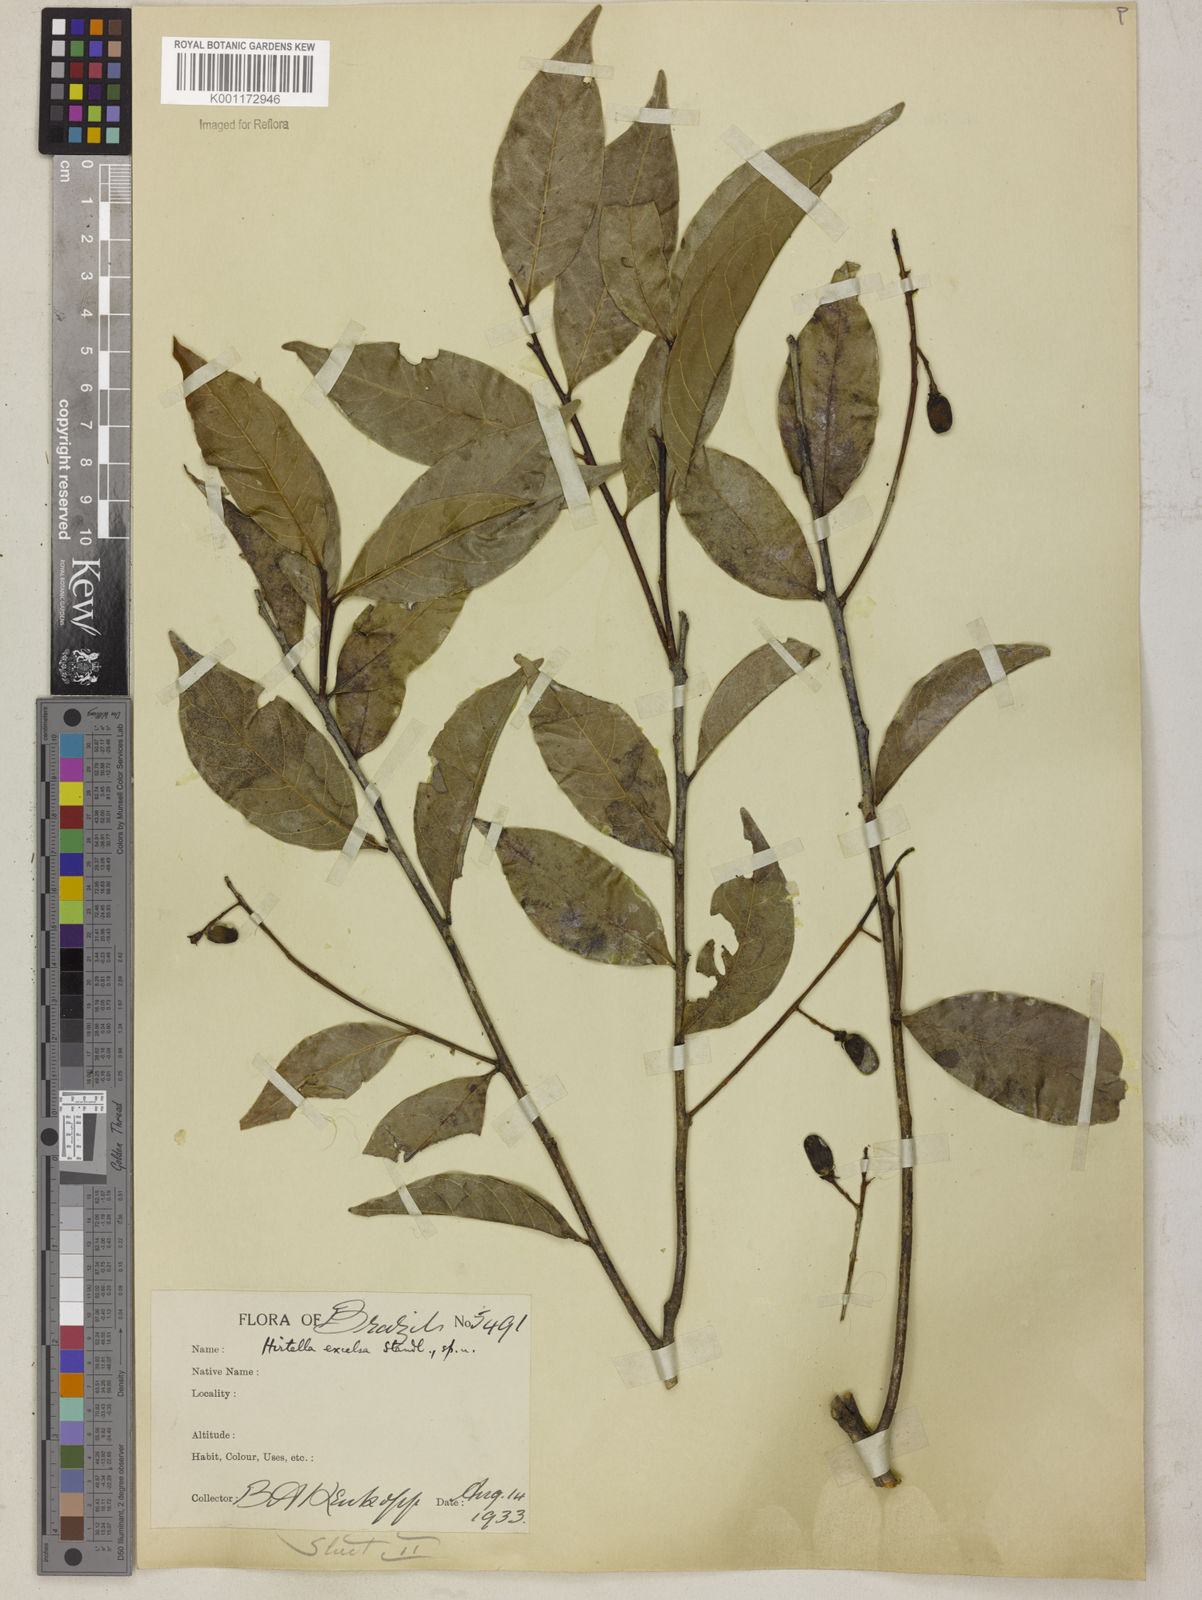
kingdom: Plantae
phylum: Tracheophyta
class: Magnoliopsida
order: Malpighiales
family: Chrysobalanaceae
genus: Hirtella
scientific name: Hirtella excelsa
